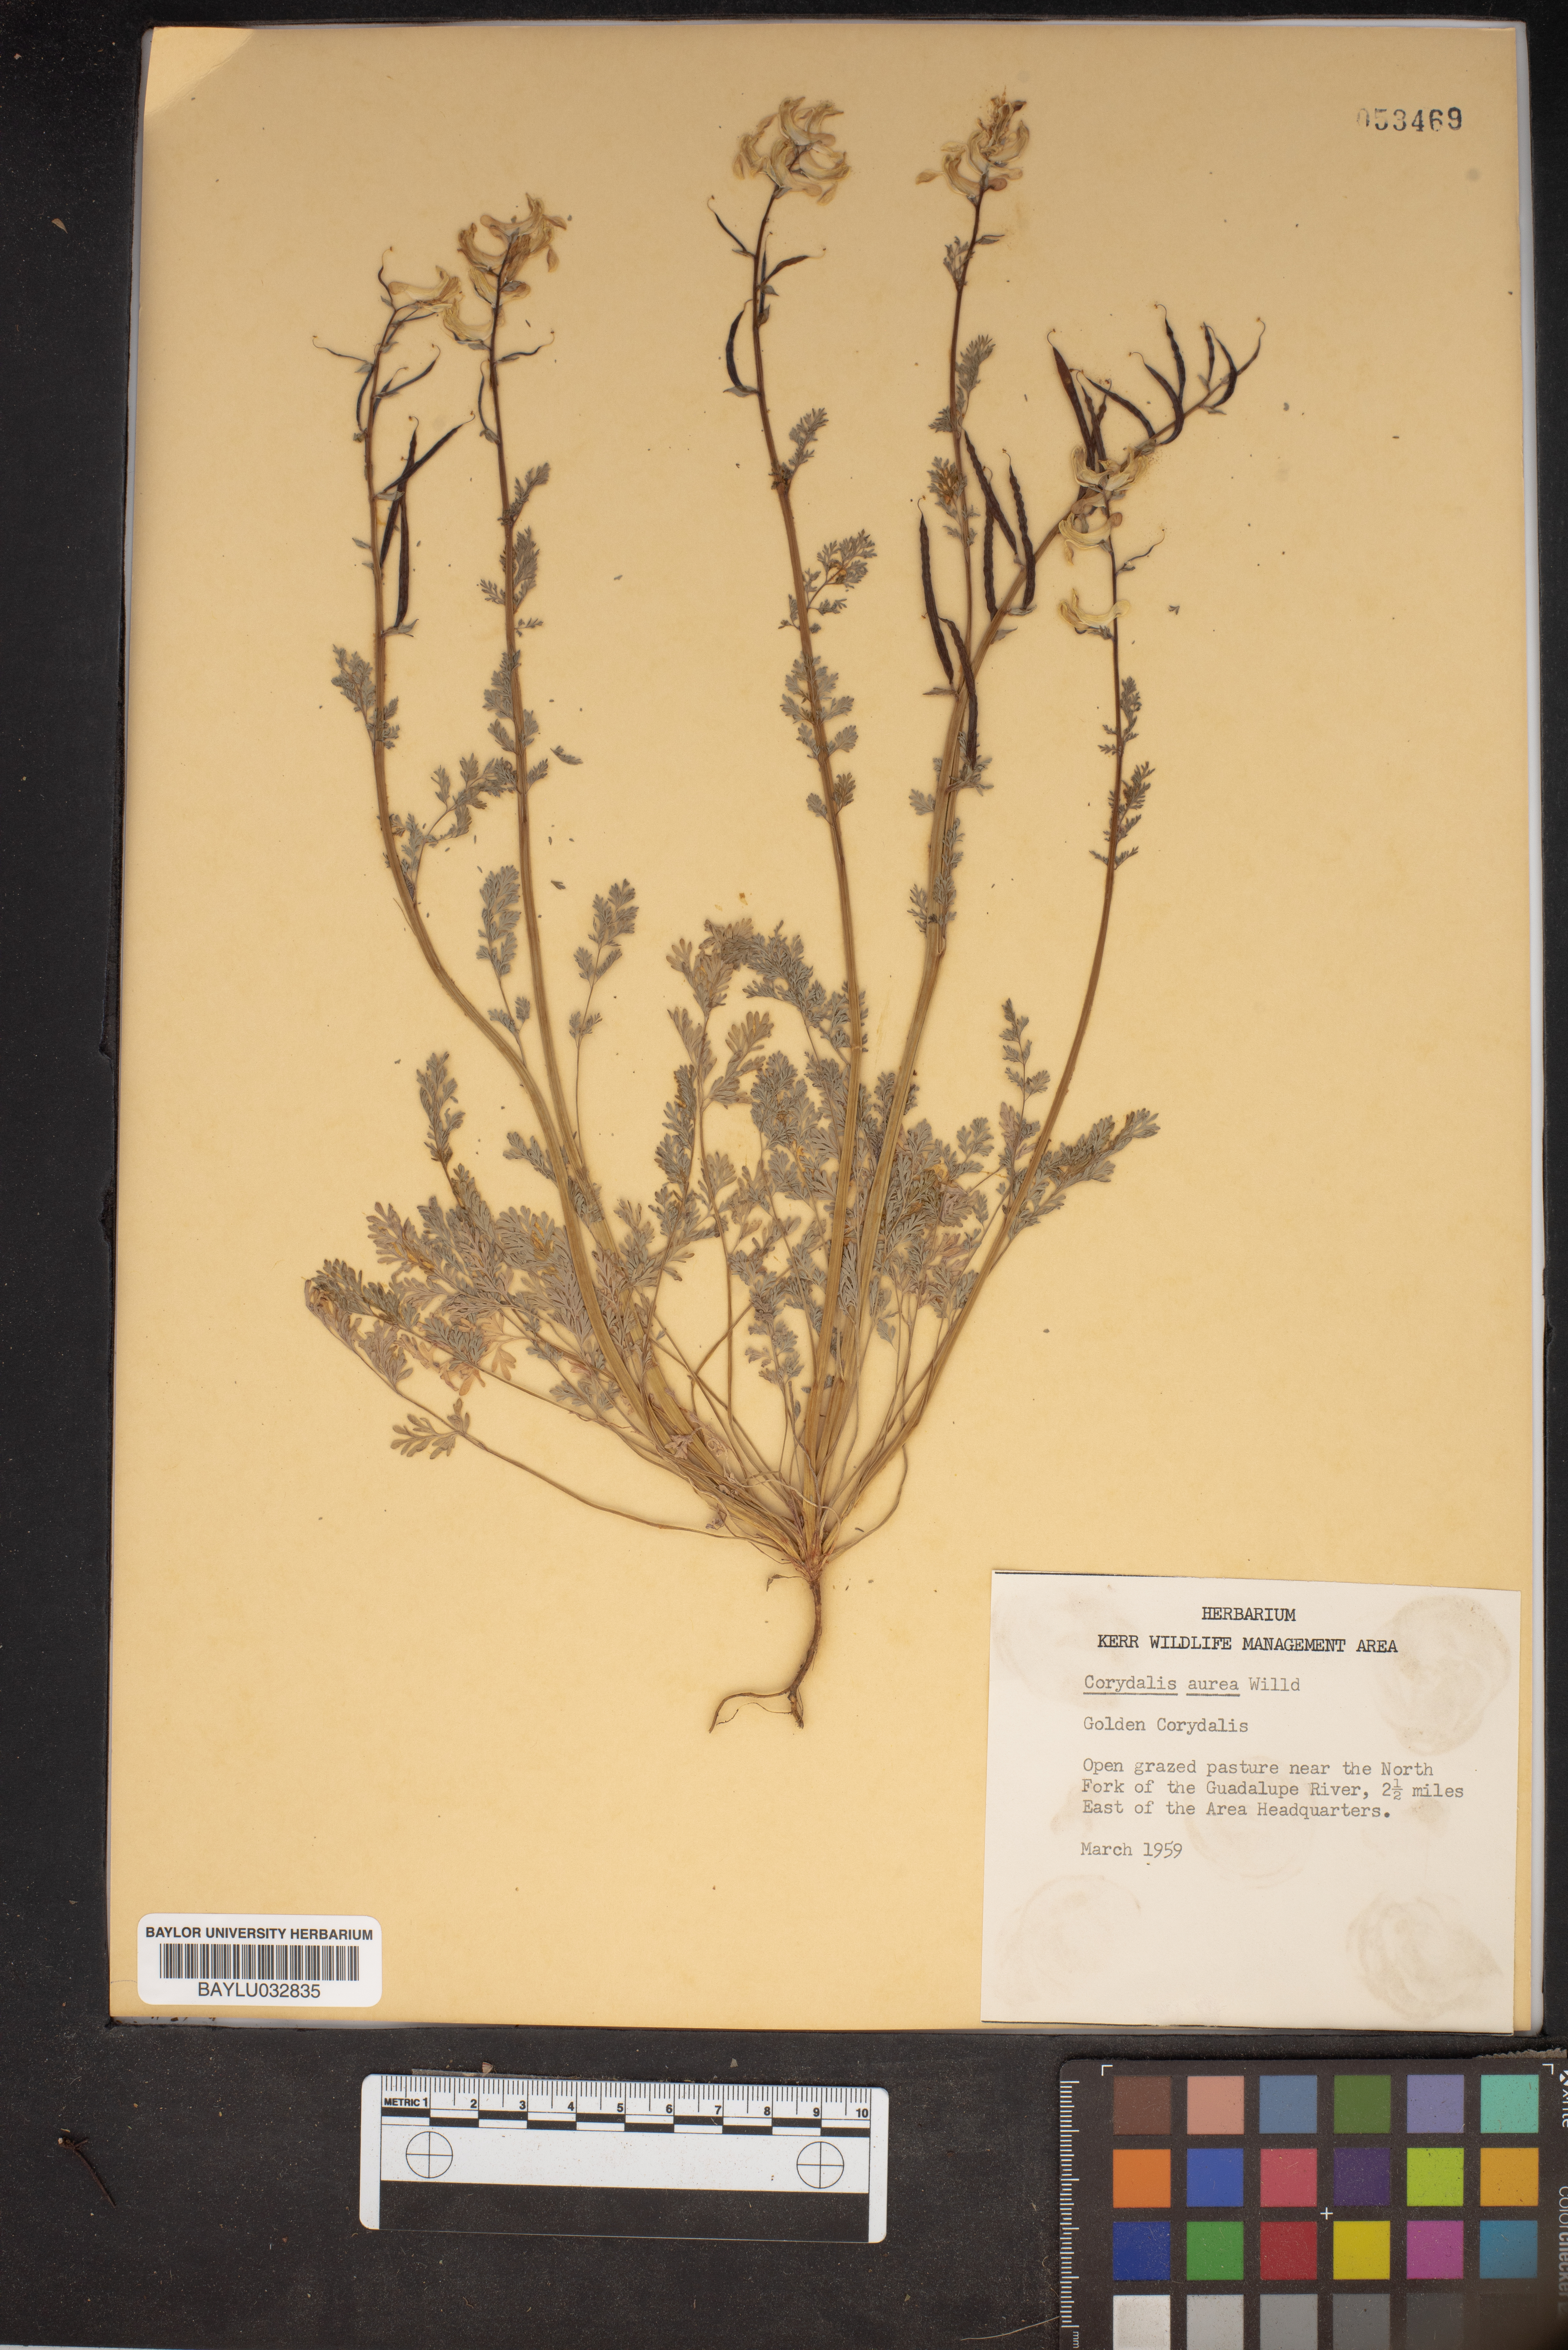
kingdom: Plantae
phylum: Tracheophyta
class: Magnoliopsida
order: Ranunculales
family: Papaveraceae
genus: Corydalis
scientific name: Corydalis aurea
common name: Golden corydalis
